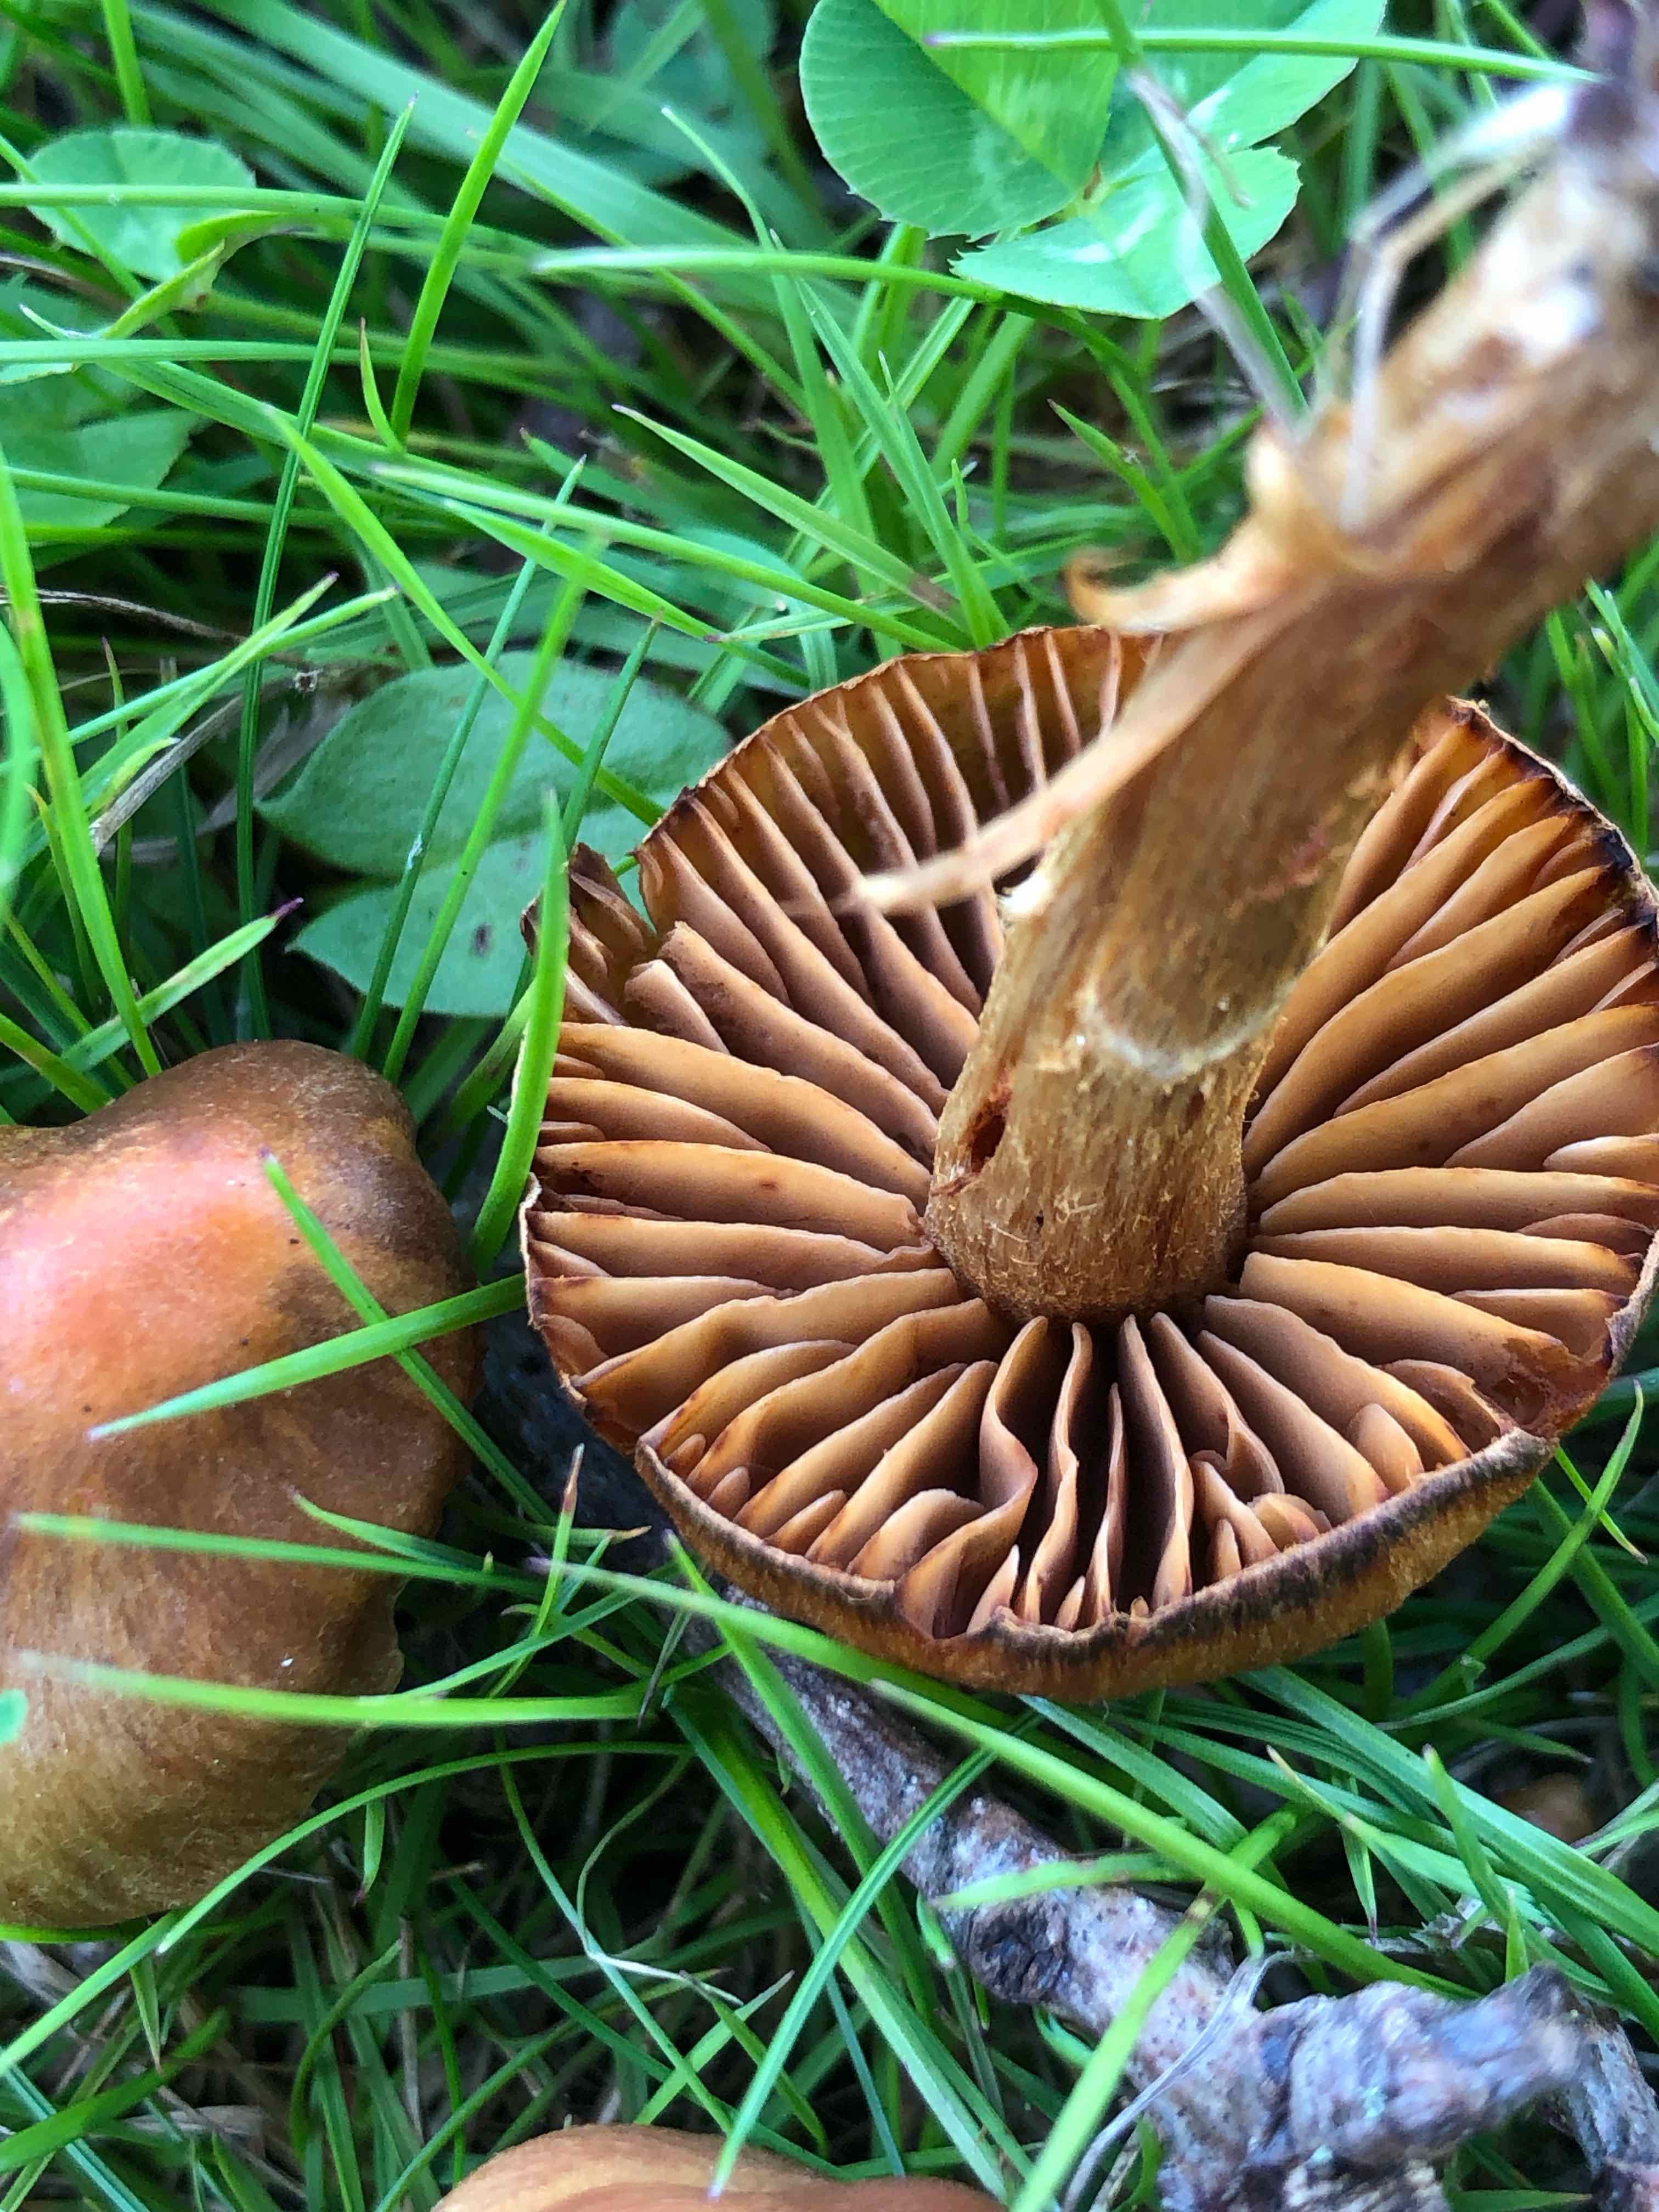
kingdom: Fungi
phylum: Basidiomycota
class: Agaricomycetes
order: Agaricales
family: Cortinariaceae
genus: Cortinarius
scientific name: Cortinarius
